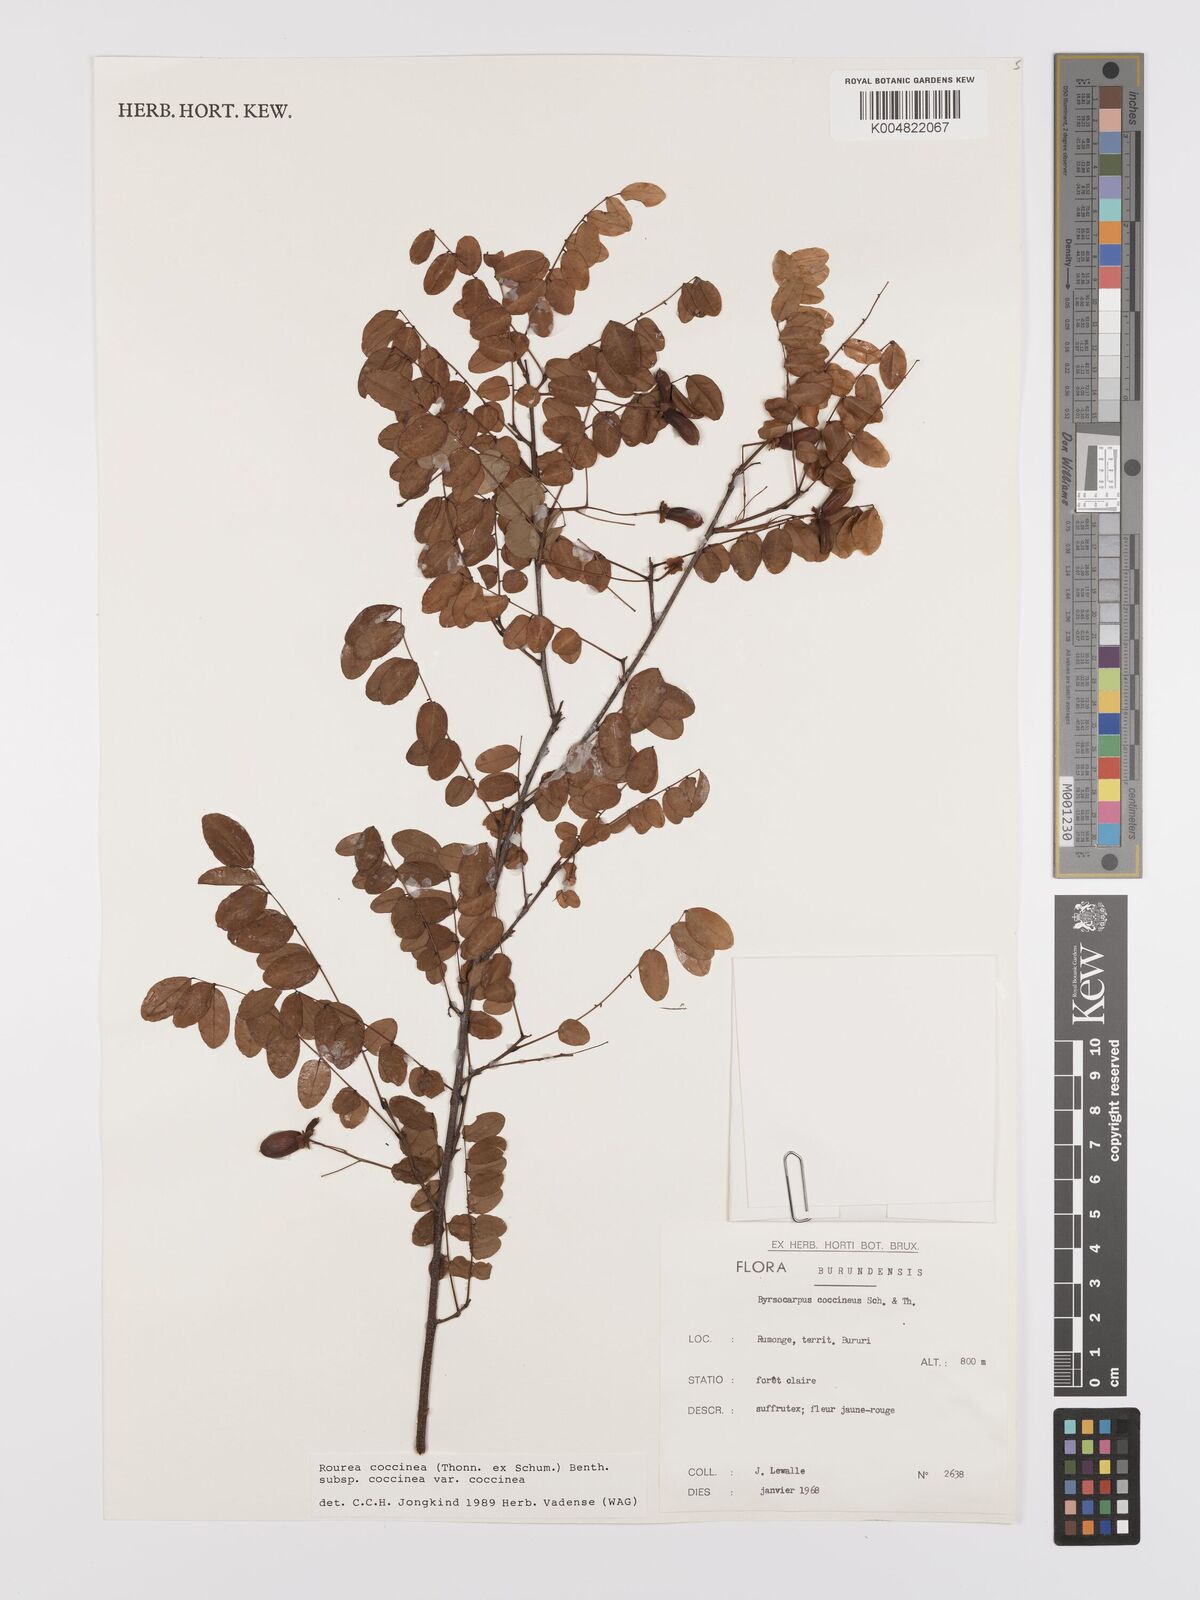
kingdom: Plantae
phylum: Tracheophyta
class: Magnoliopsida
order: Oxalidales
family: Connaraceae
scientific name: Connaraceae
